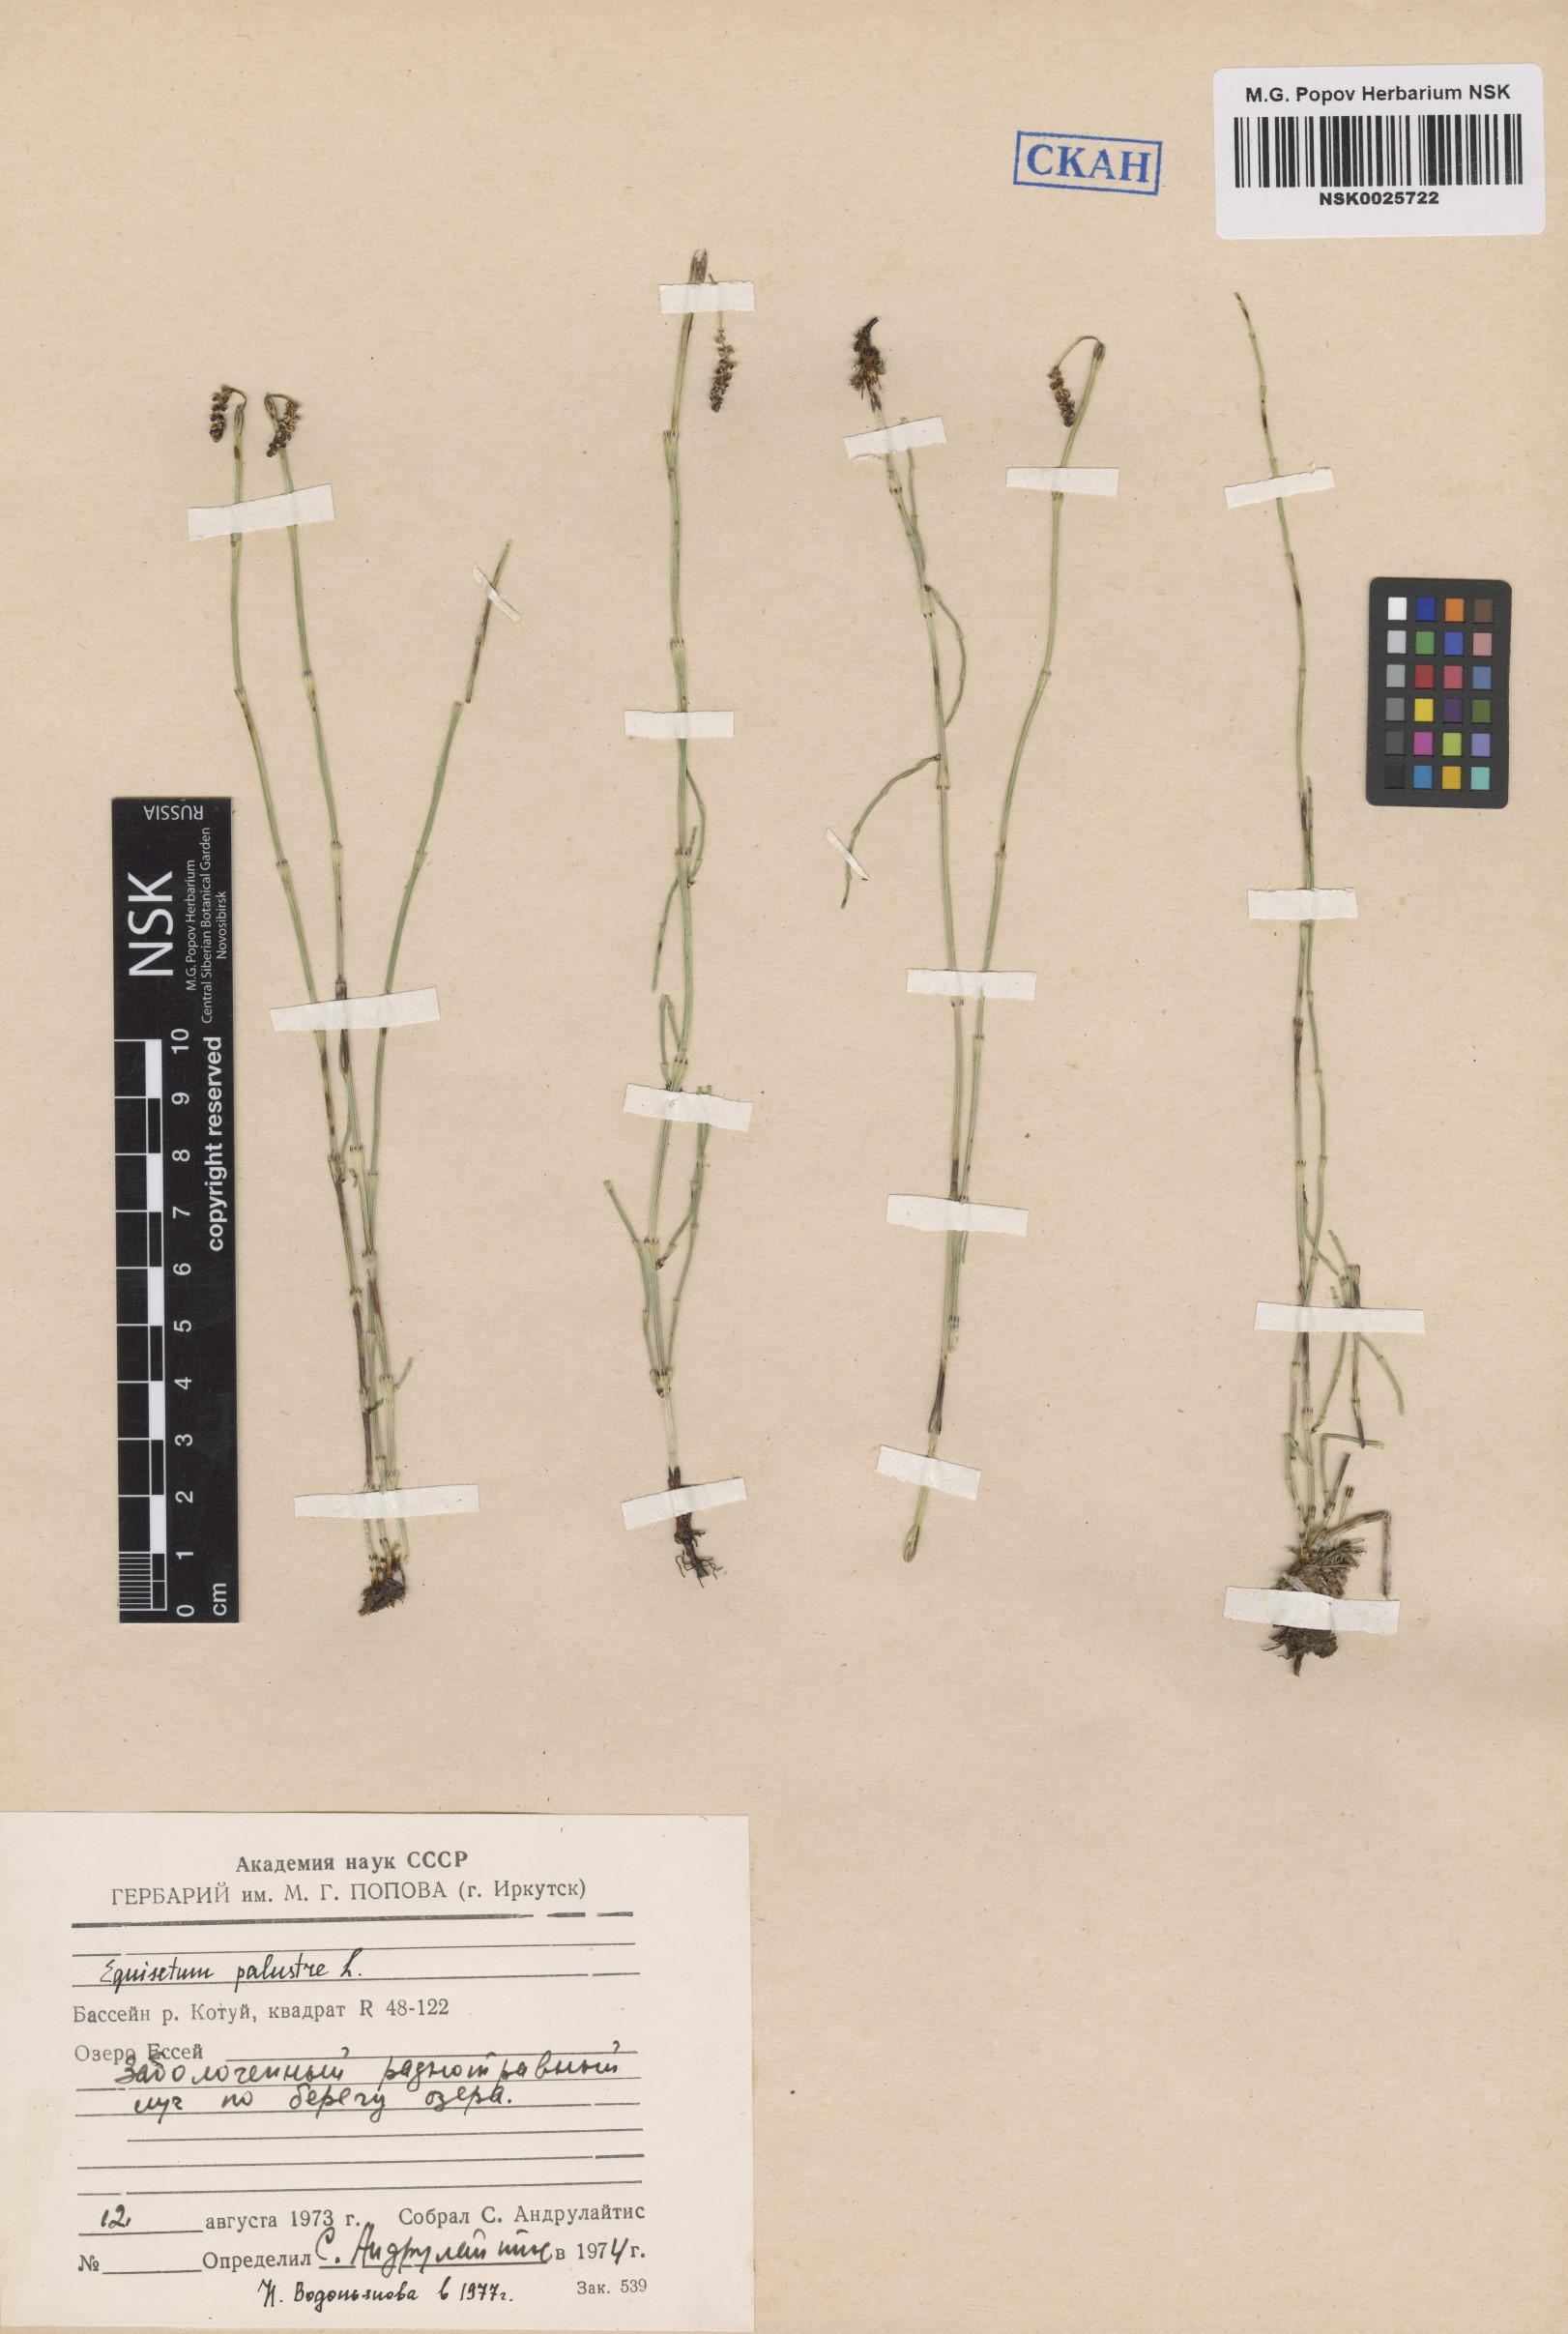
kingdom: Plantae
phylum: Tracheophyta
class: Polypodiopsida
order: Equisetales
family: Equisetaceae
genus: Equisetum
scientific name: Equisetum palustre
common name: Marsh horsetail
